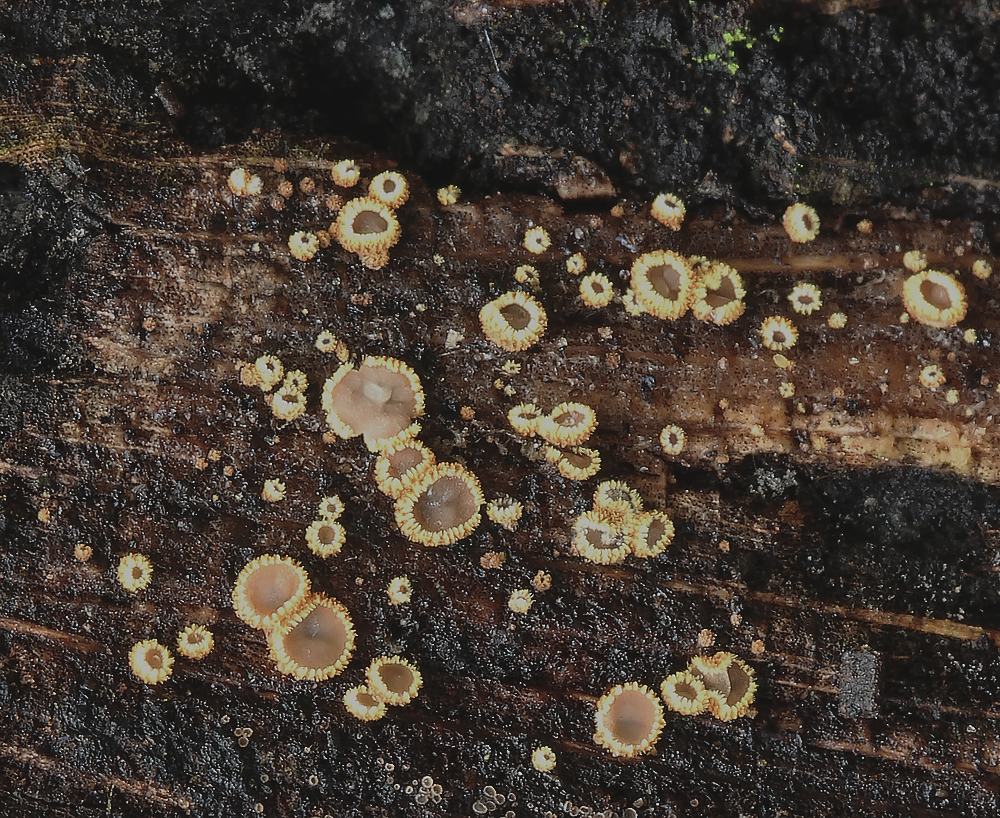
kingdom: Fungi
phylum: Ascomycota
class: Leotiomycetes
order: Helotiales
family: Lachnaceae
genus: Trichopeziza
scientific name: Trichopeziza subsulphurea
